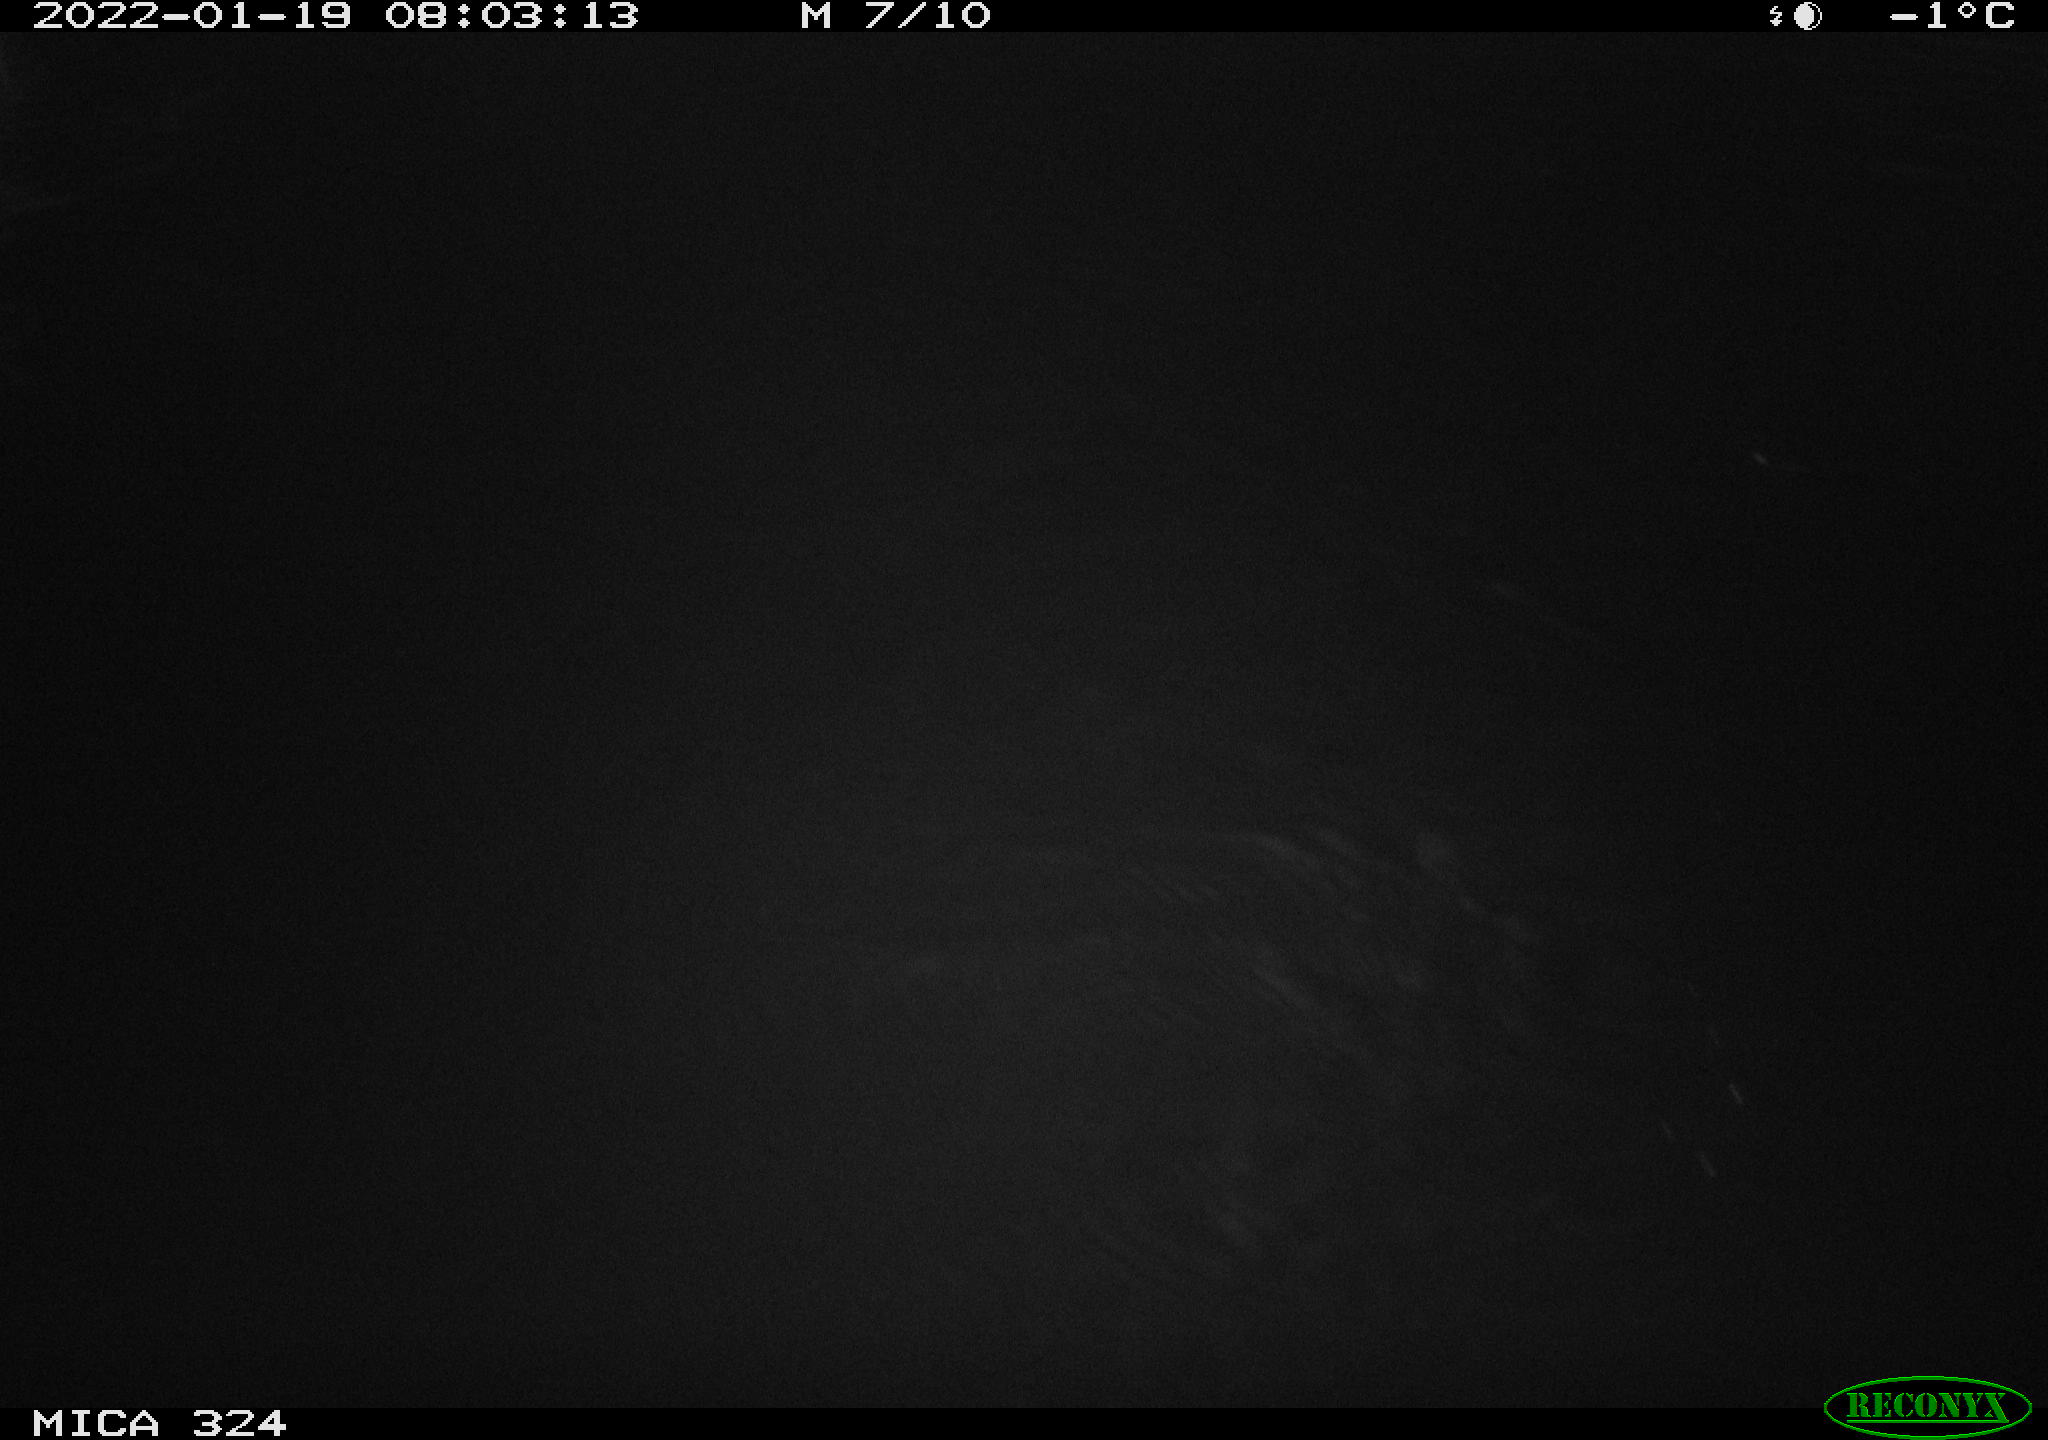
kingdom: Animalia
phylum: Chordata
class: Mammalia
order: Rodentia
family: Cricetidae
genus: Ondatra
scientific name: Ondatra zibethicus
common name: Muskrat
